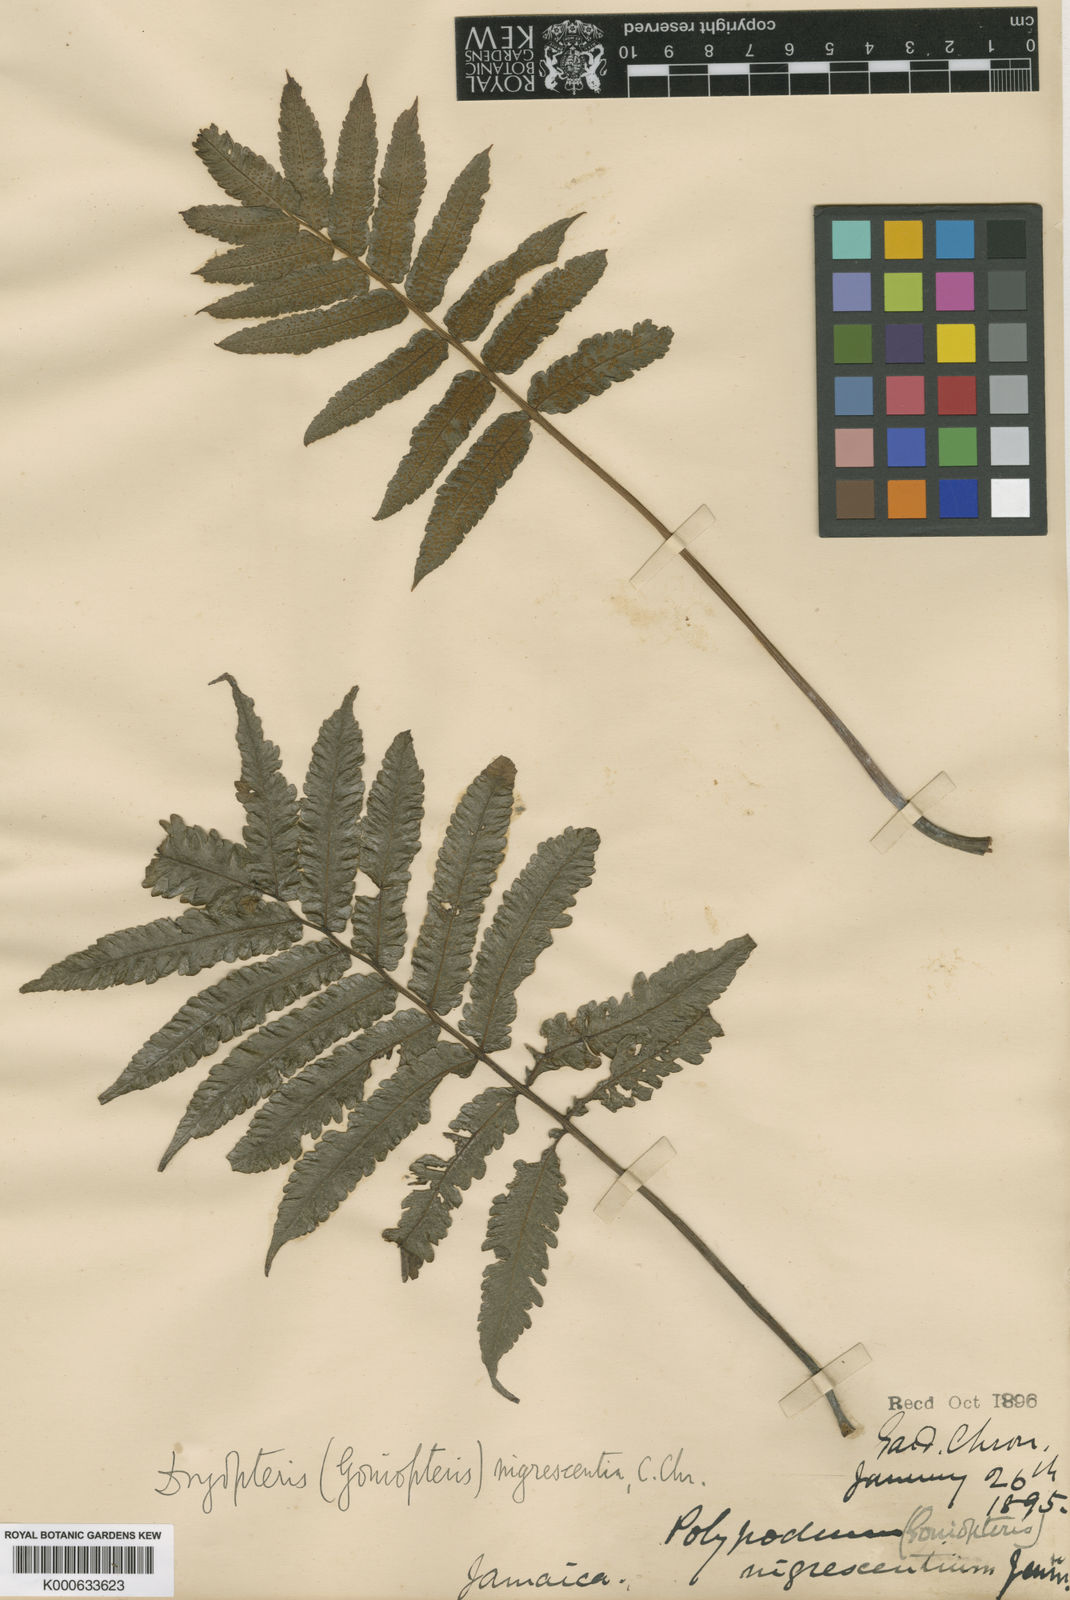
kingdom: Plantae
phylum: Tracheophyta
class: Polypodiopsida
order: Polypodiales
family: Thelypteridaceae
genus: Goniopteris
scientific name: Goniopteris obliterata
